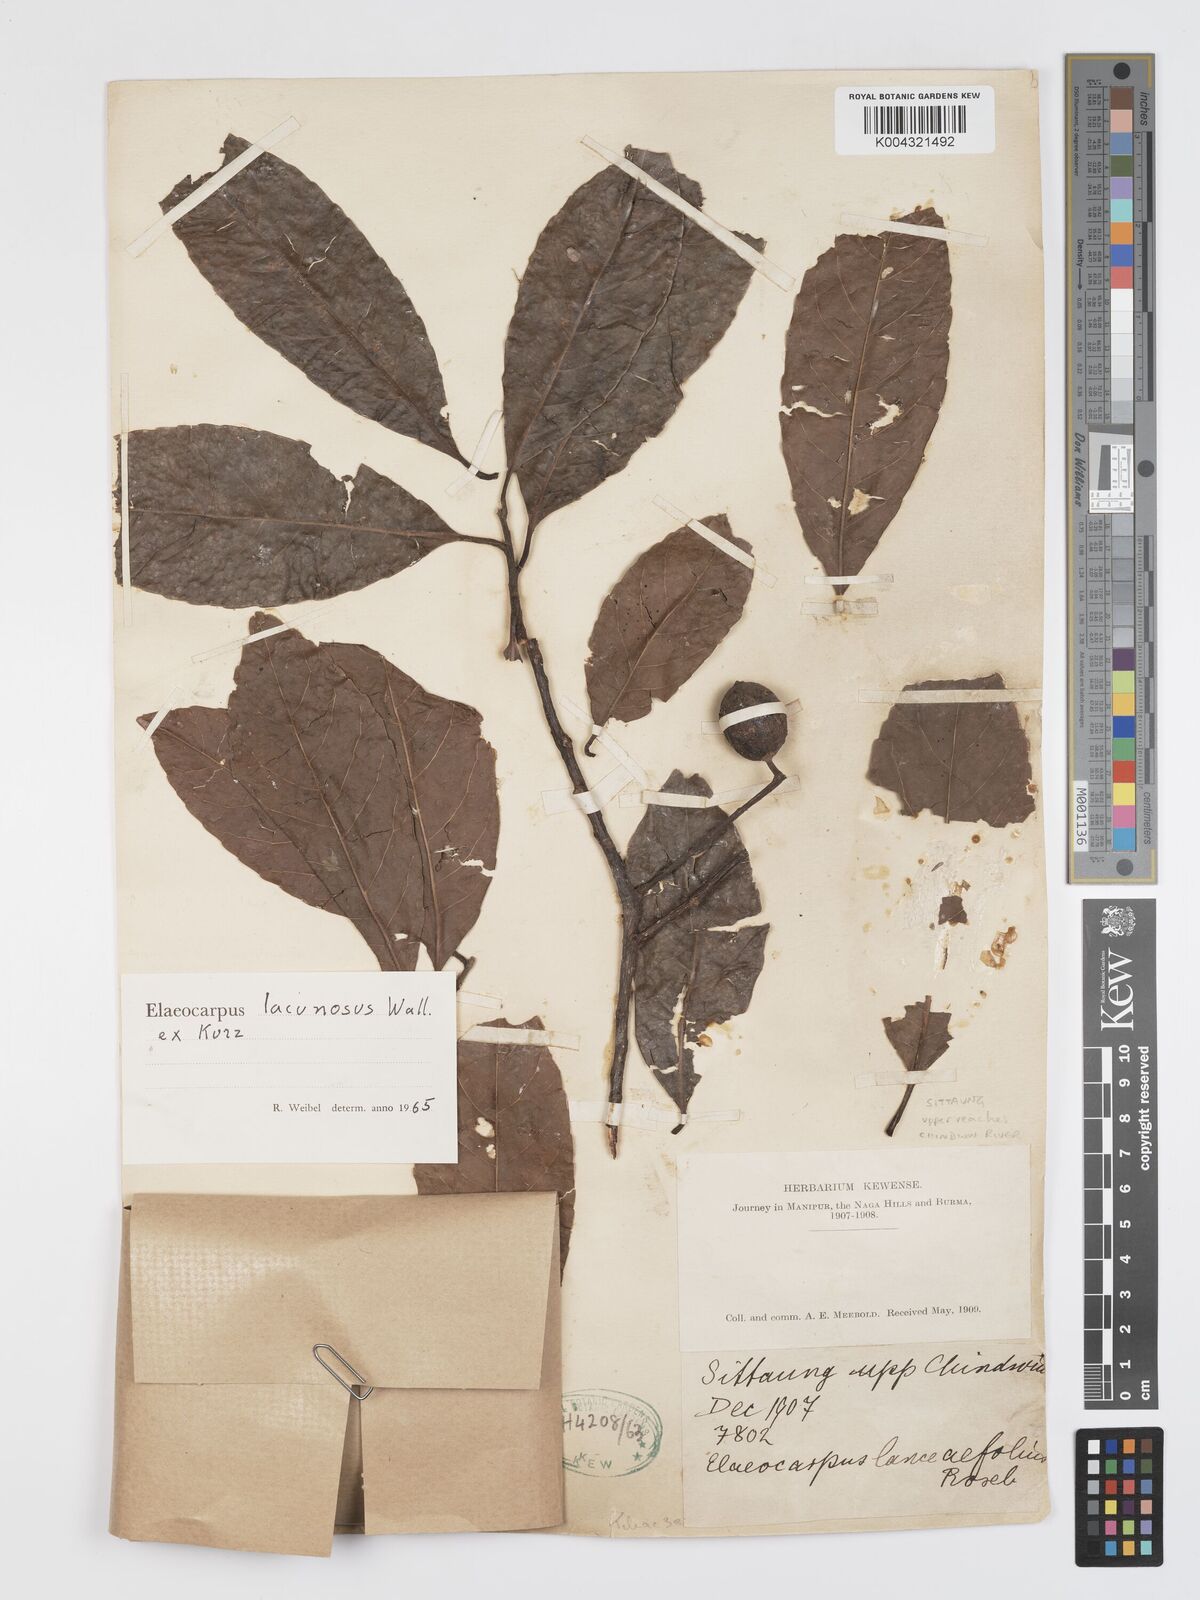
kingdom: Plantae
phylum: Tracheophyta
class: Magnoliopsida
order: Oxalidales
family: Elaeocarpaceae
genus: Elaeocarpus
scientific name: Elaeocarpus lanceifolius
